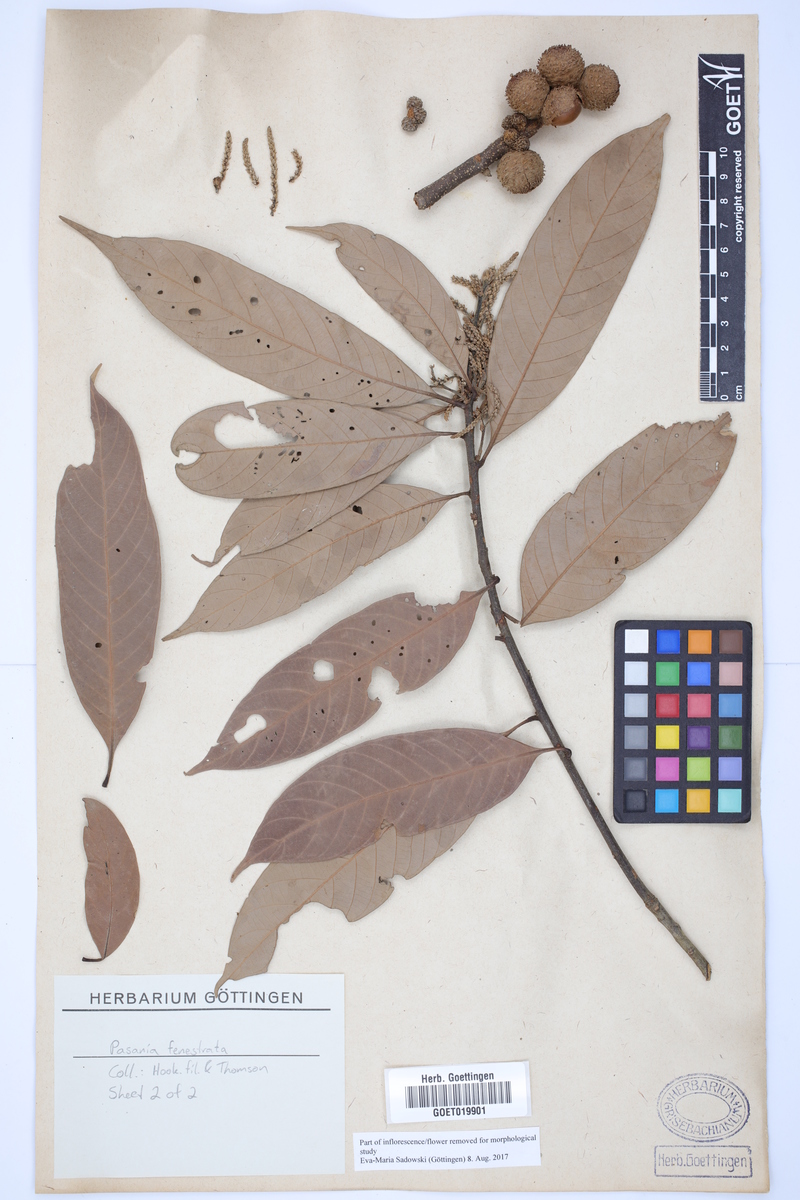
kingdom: Plantae
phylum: Tracheophyta
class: Magnoliopsida
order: Fagales
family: Fagaceae
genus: Lithocarpus
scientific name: Lithocarpus fenestratus
